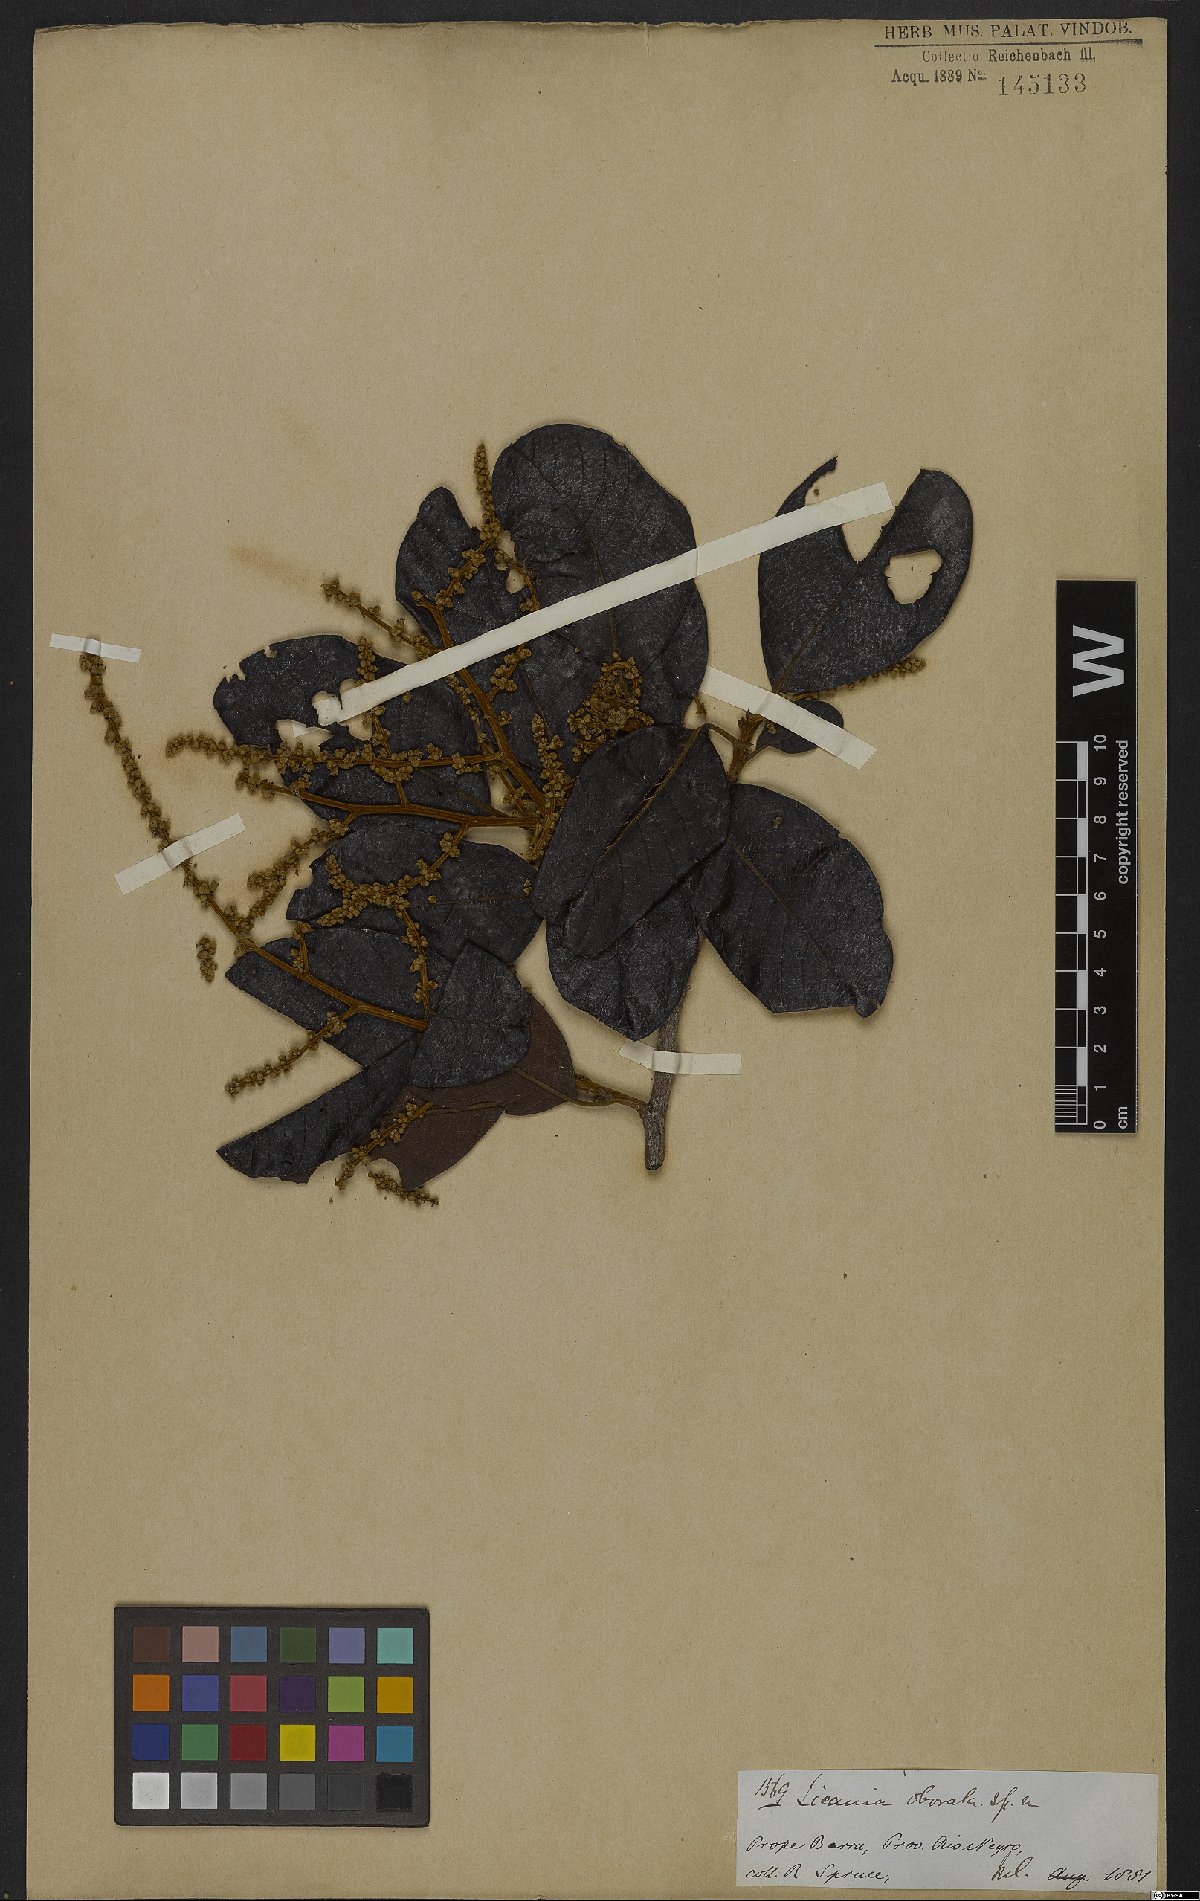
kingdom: Plantae
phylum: Tracheophyta
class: Magnoliopsida
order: Malpighiales
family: Chrysobalanaceae
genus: Hymenopus
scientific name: Hymenopus latifolius
